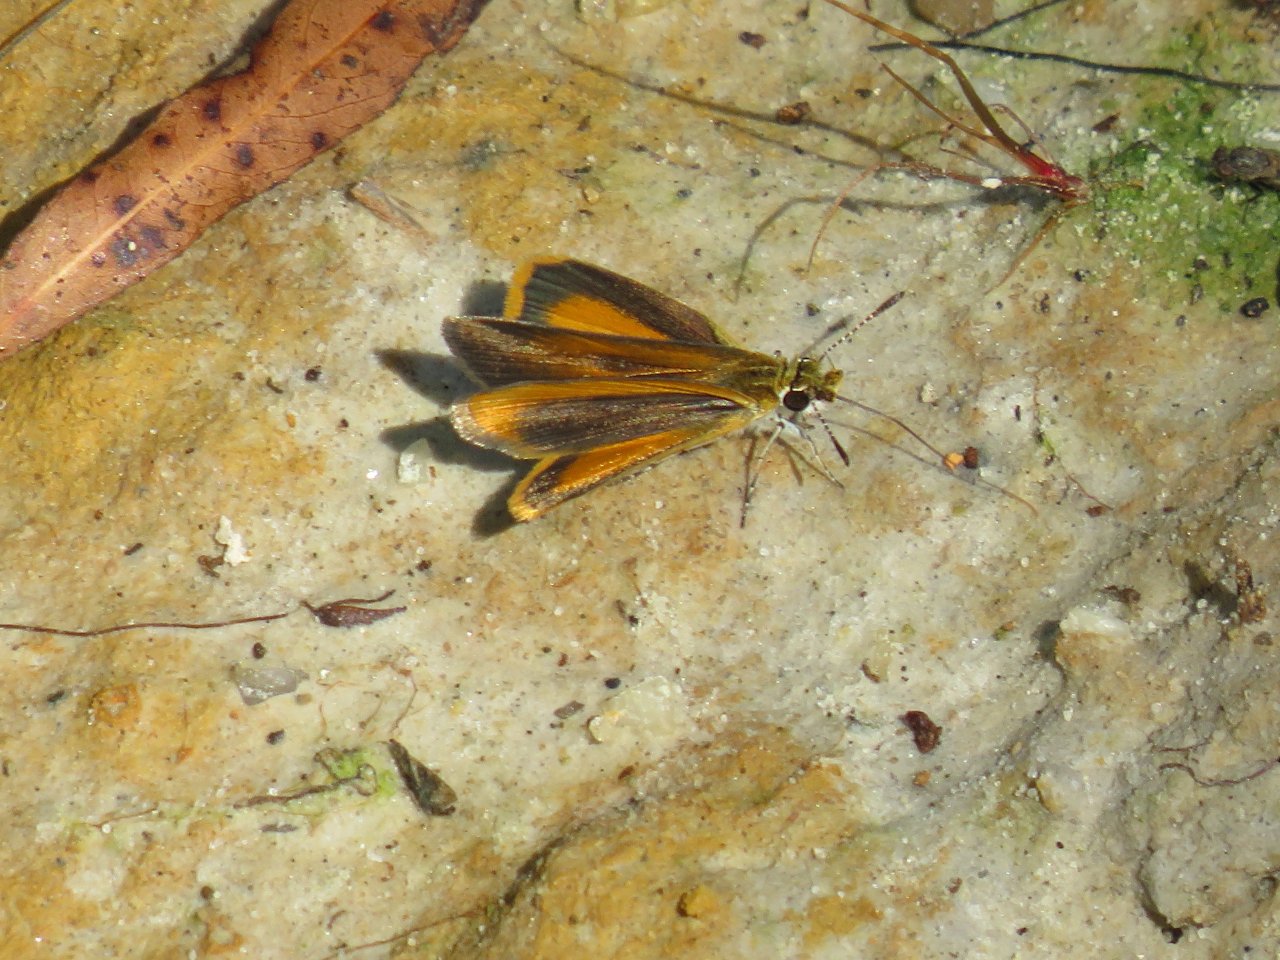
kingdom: Animalia
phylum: Arthropoda
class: Insecta
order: Lepidoptera
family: Hesperiidae
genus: Ancyloxypha
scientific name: Ancyloxypha numitor
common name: Least Skipper
